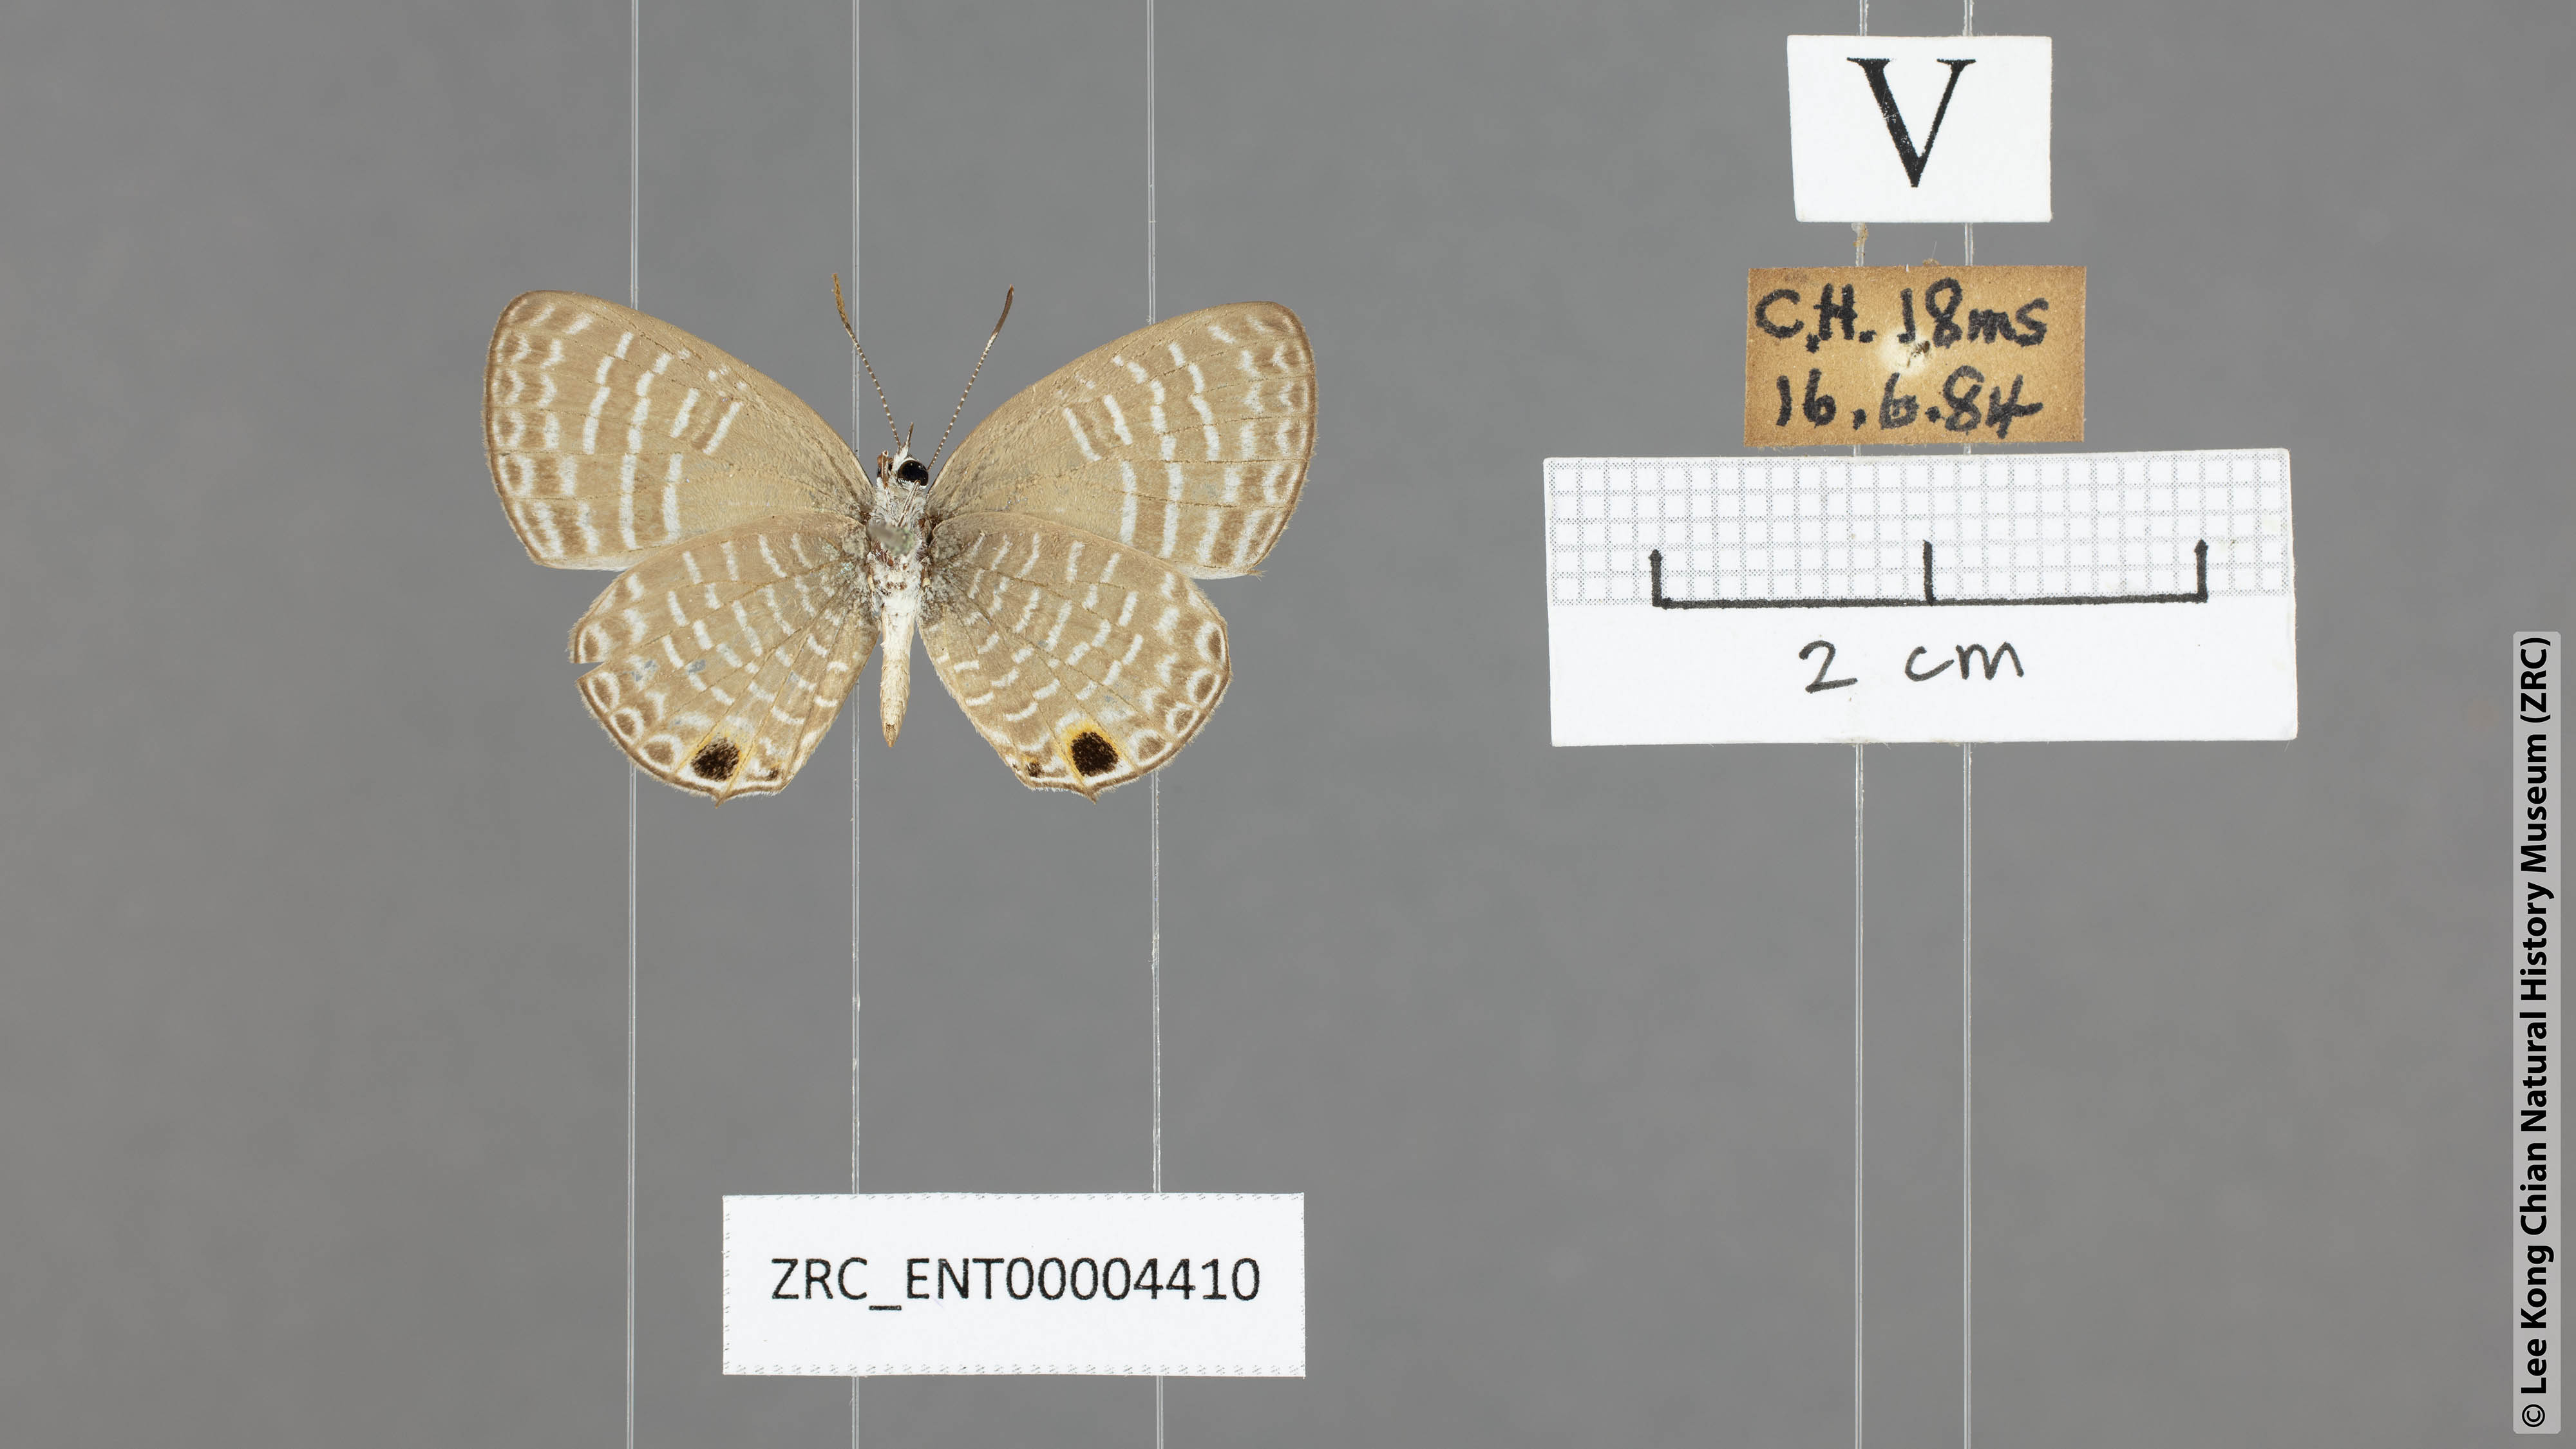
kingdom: Animalia
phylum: Arthropoda
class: Insecta
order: Lepidoptera
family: Lycaenidae
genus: Nacaduba
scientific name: Nacaduba pendleburyi
